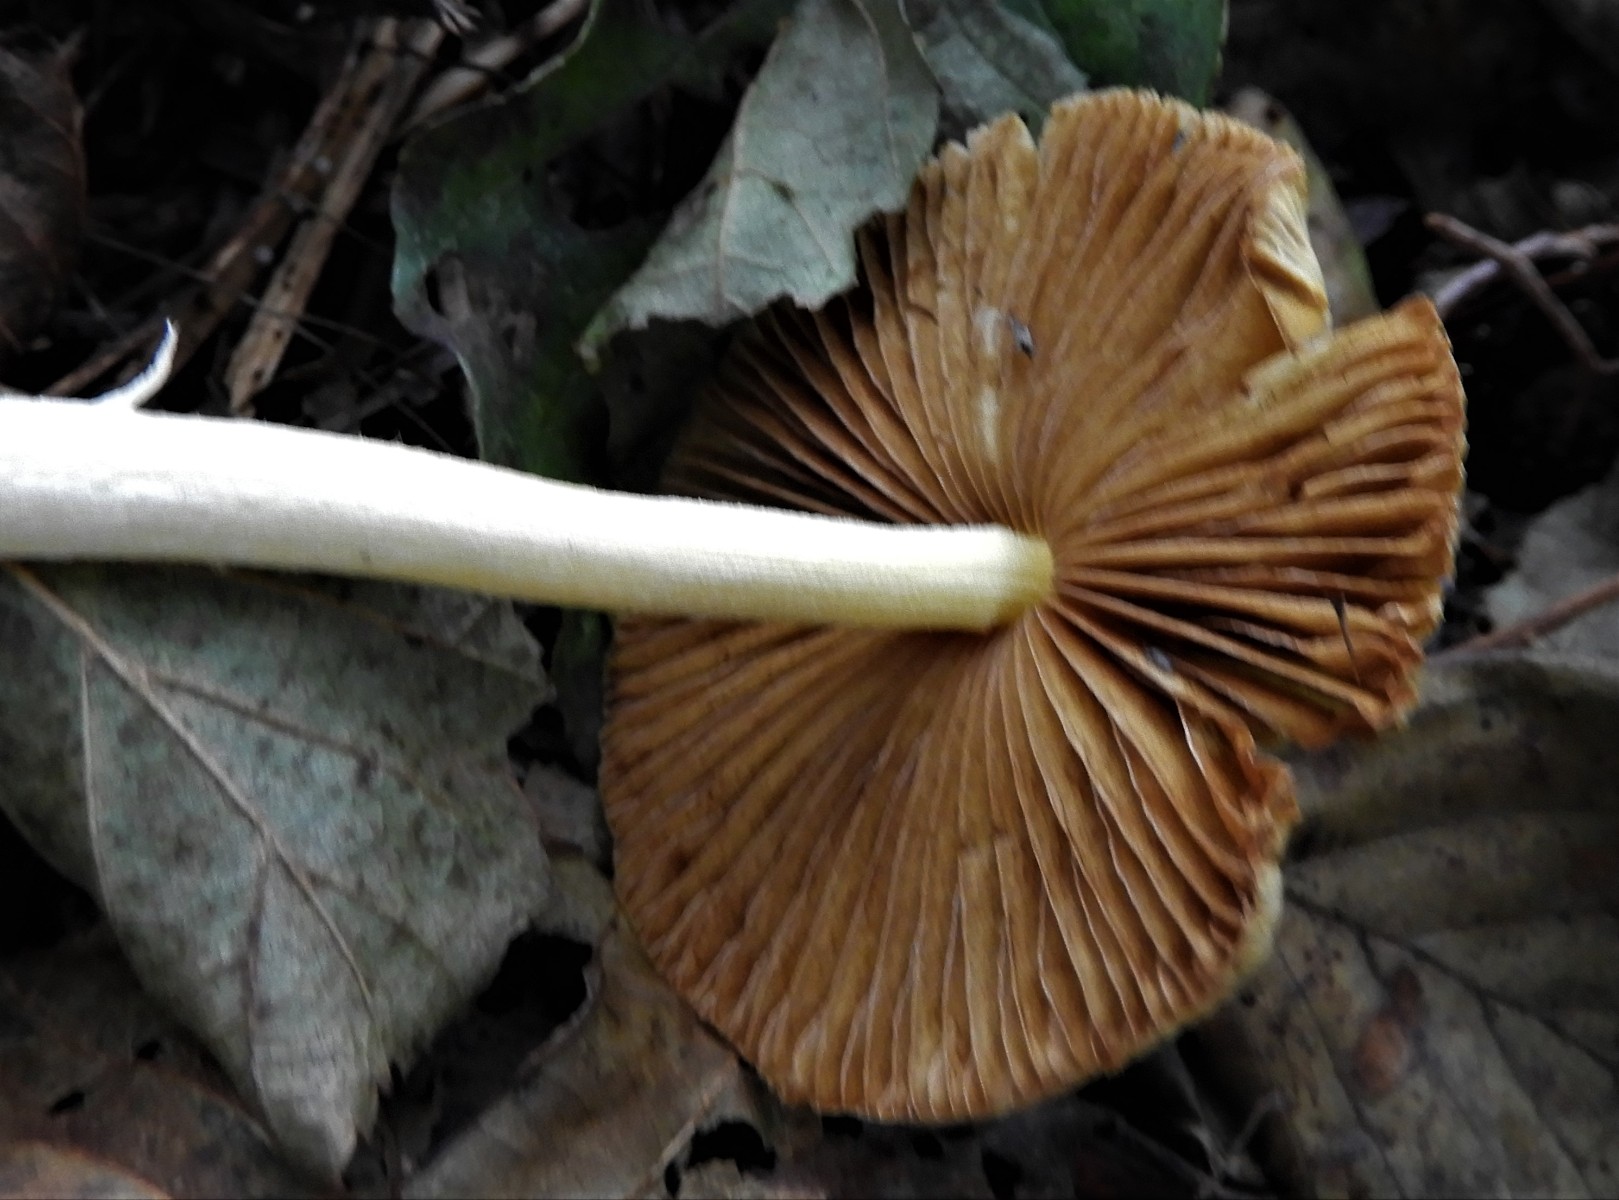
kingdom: Fungi
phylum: Basidiomycota
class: Agaricomycetes
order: Agaricales
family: Bolbitiaceae
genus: Bolbitius
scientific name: Bolbitius titubans
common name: almindelig gulhat
